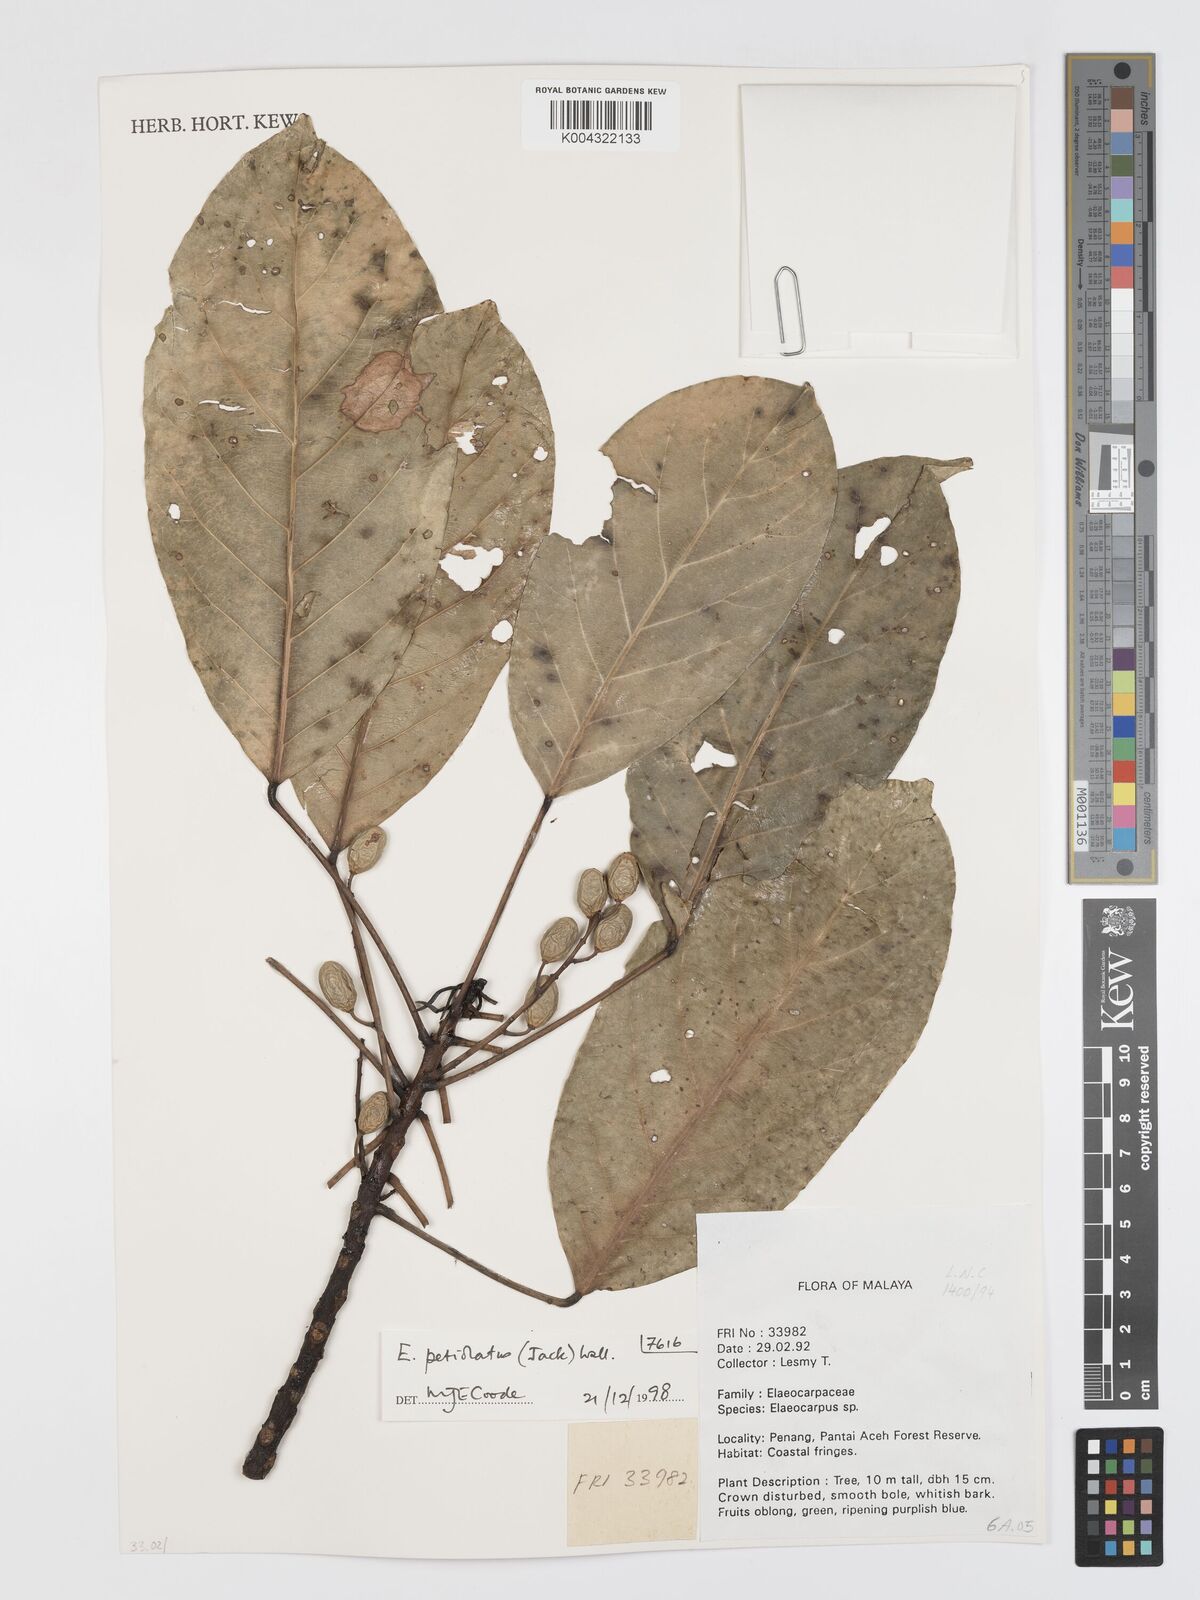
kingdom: Plantae
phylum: Tracheophyta
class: Magnoliopsida
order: Oxalidales
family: Elaeocarpaceae
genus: Elaeocarpus
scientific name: Elaeocarpus petiolatus
